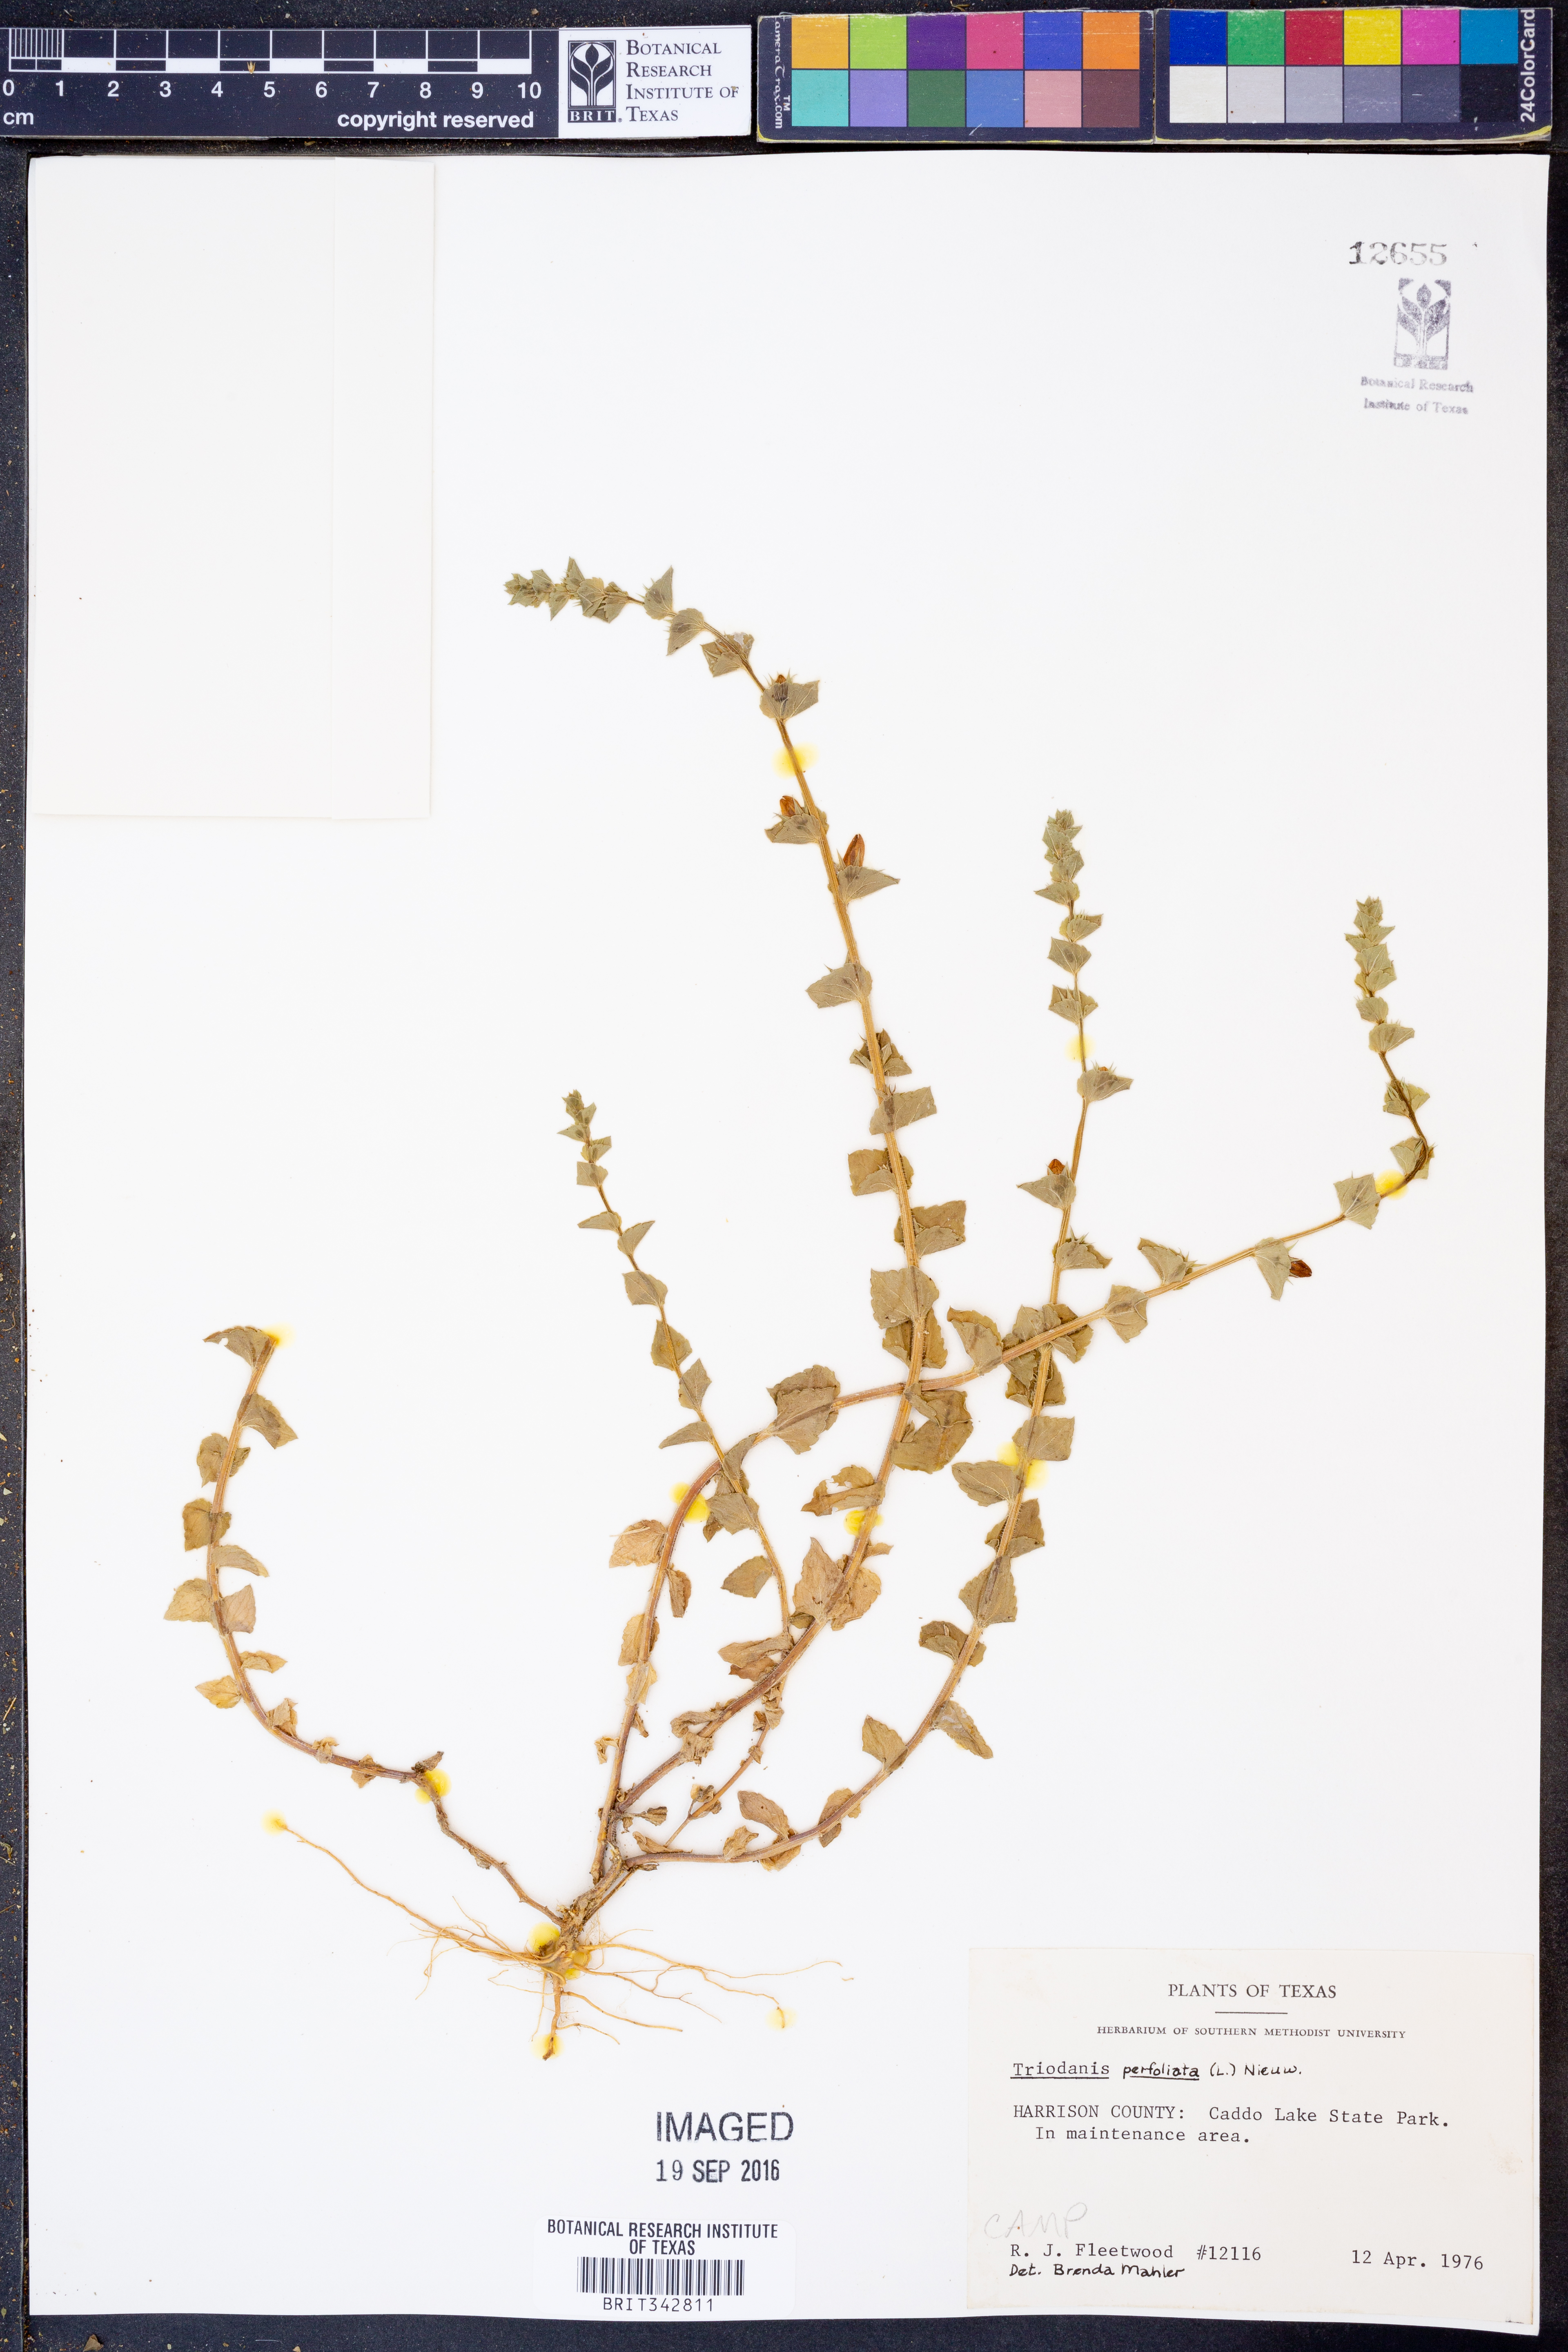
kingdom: Plantae
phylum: Tracheophyta
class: Magnoliopsida
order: Asterales
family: Campanulaceae
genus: Triodanis
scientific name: Triodanis perfoliata
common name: Clasping venus' looking-glass
